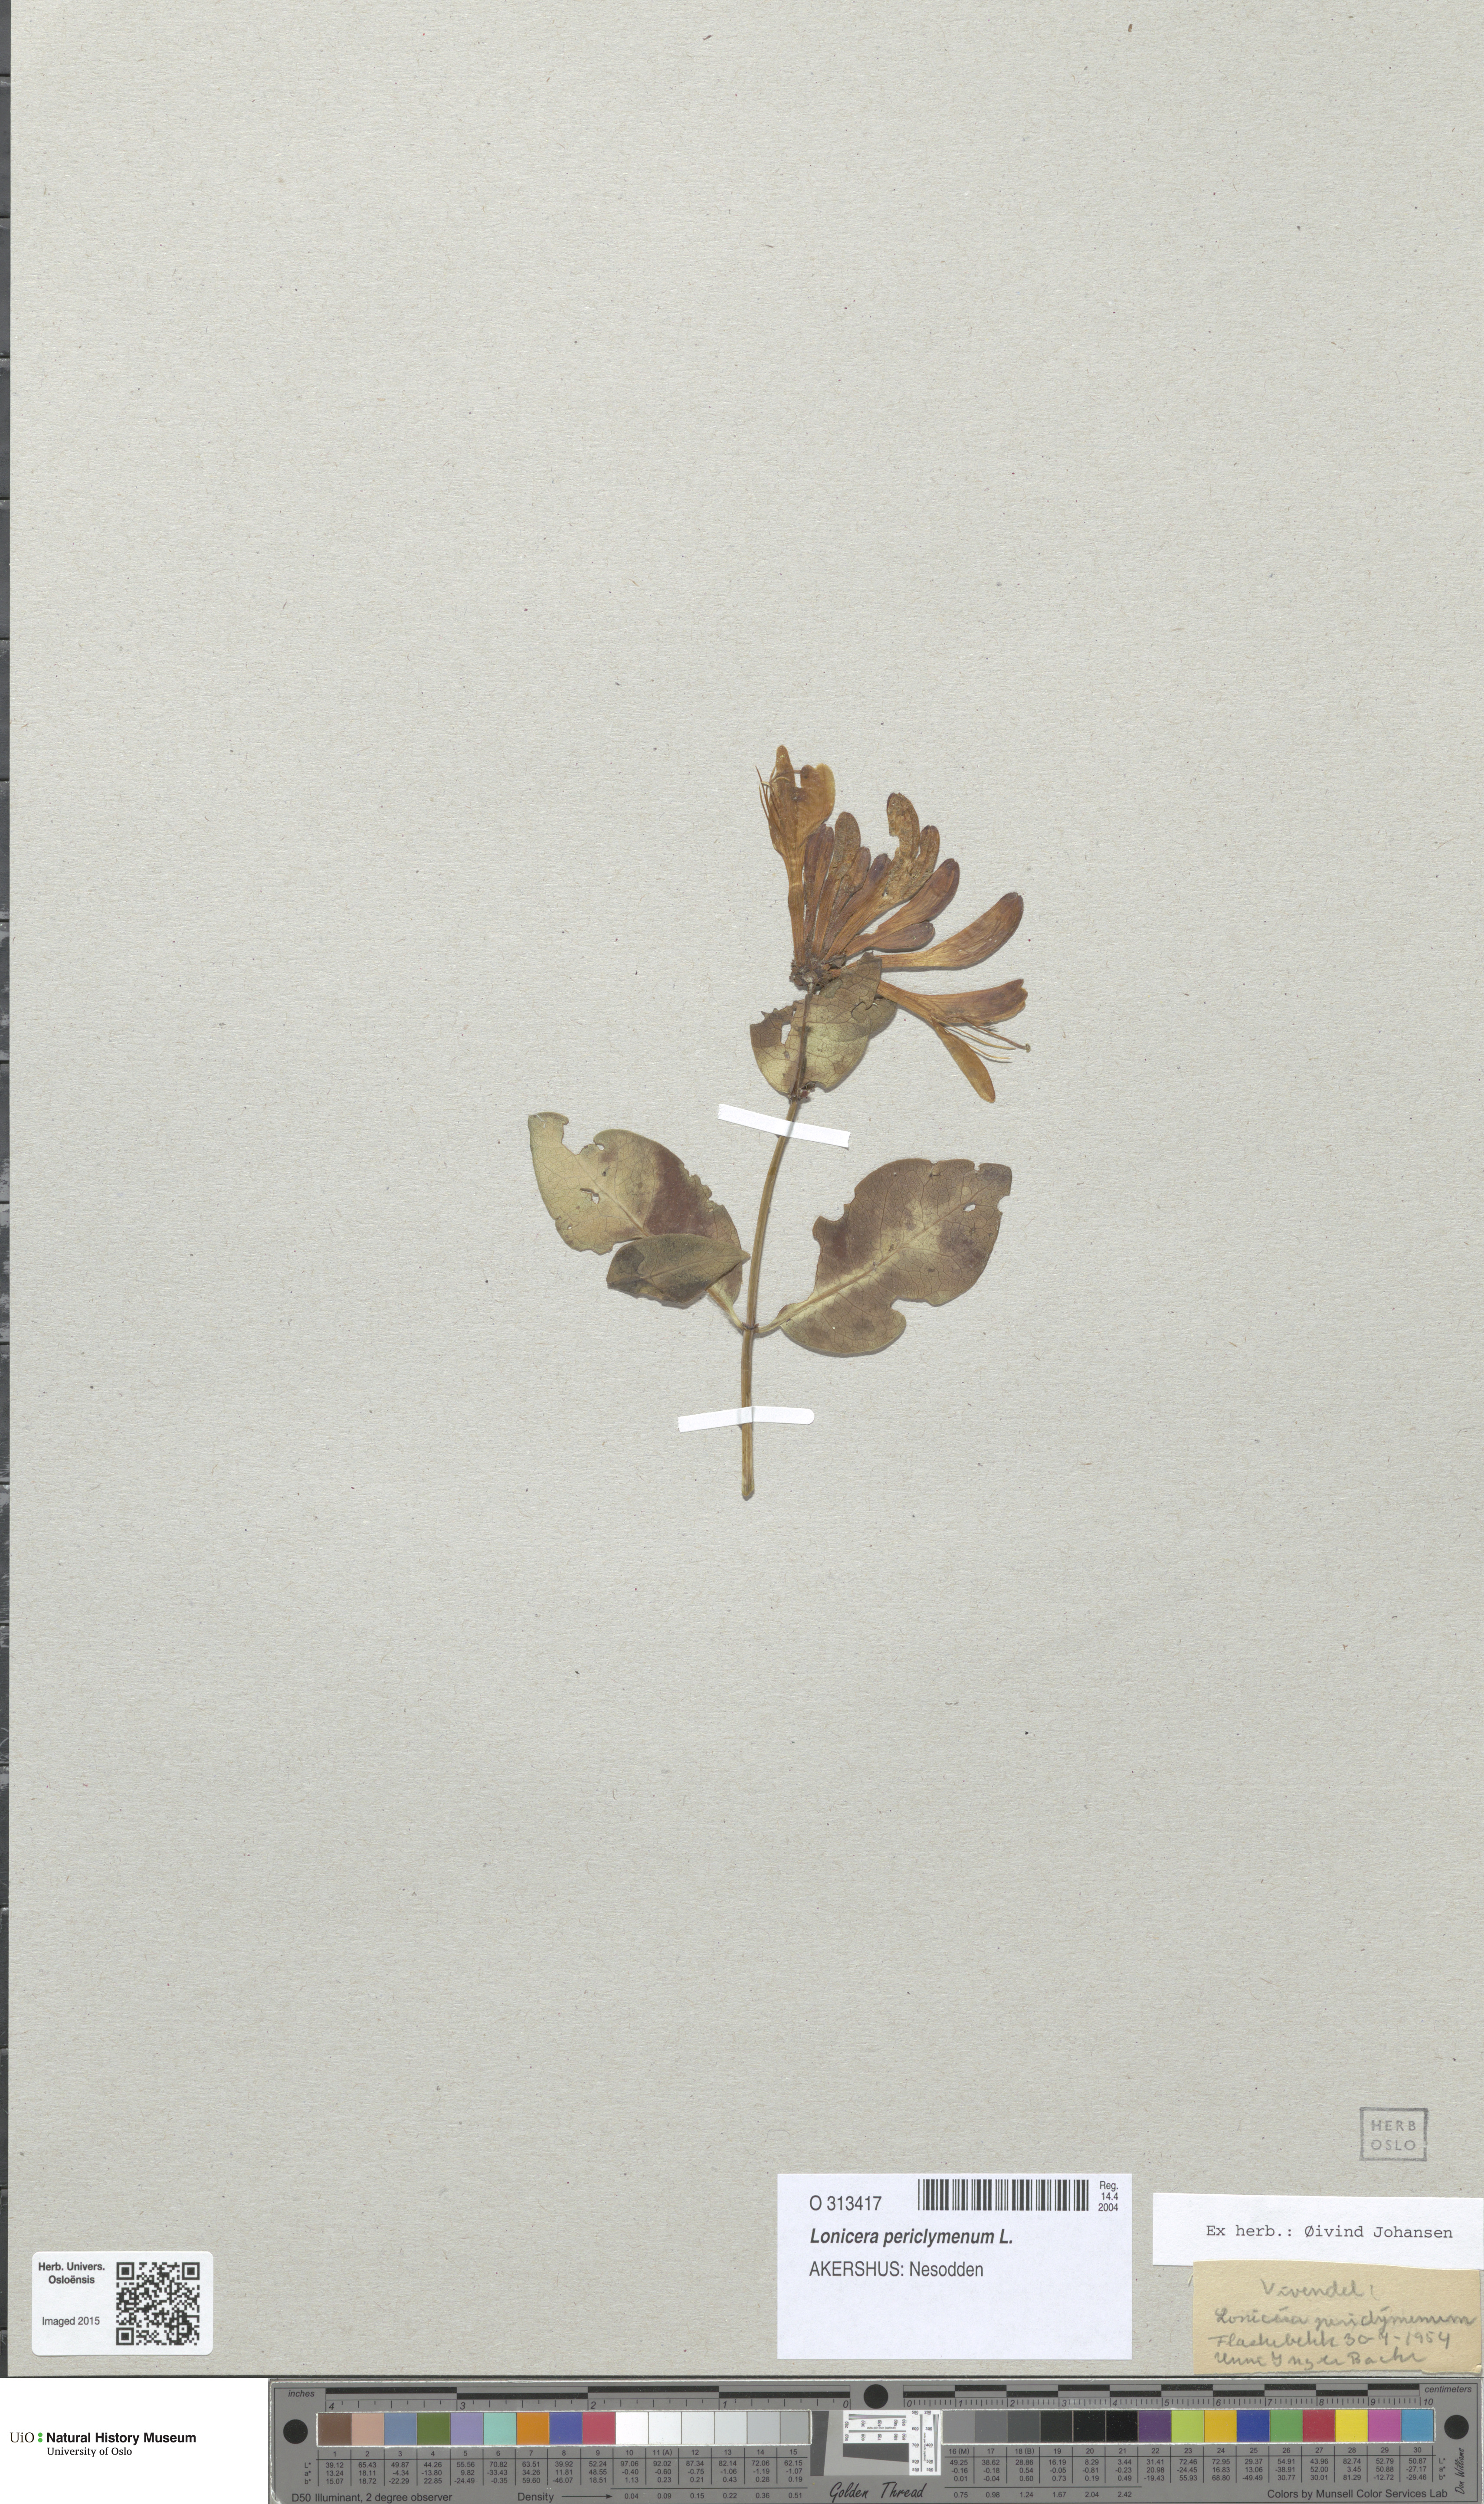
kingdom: Plantae
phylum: Tracheophyta
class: Magnoliopsida
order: Dipsacales
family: Caprifoliaceae
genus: Lonicera
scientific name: Lonicera periclymenum
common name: European honeysuckle
